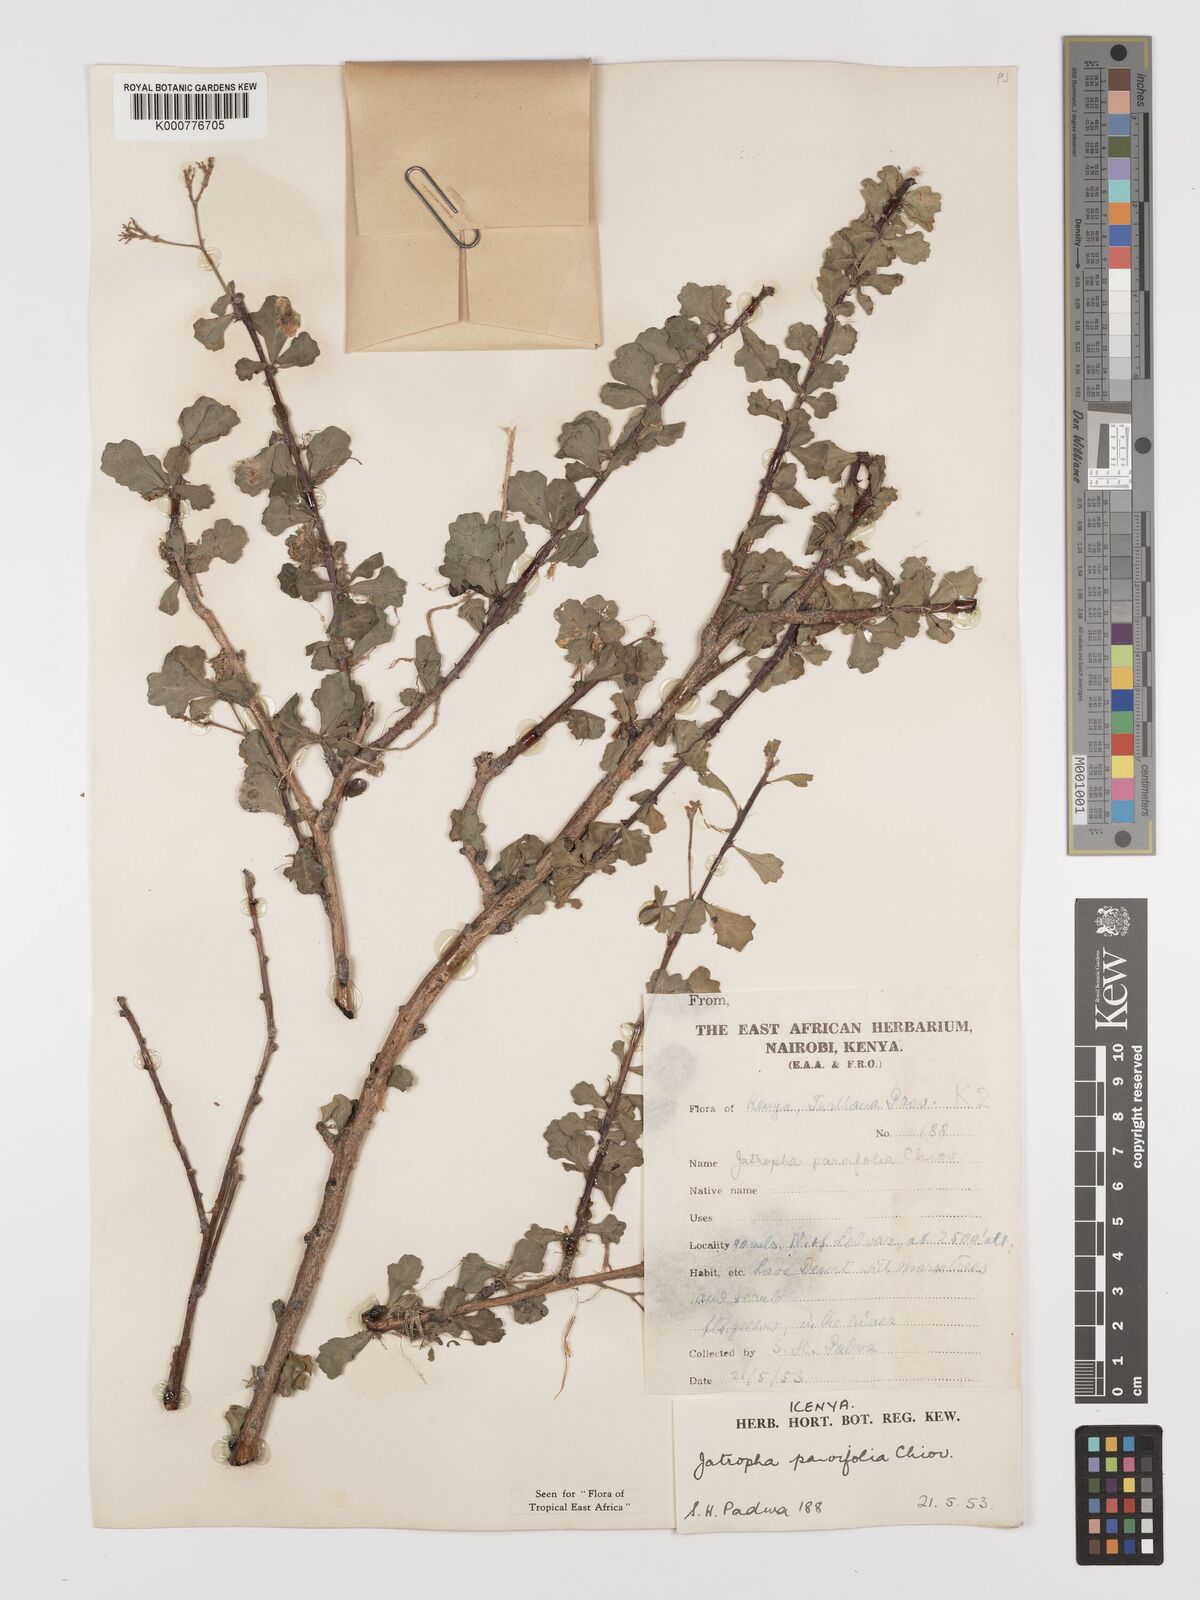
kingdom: Plantae
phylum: Tracheophyta
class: Magnoliopsida
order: Malpighiales
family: Euphorbiaceae
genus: Jatropha
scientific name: Jatropha rivae
